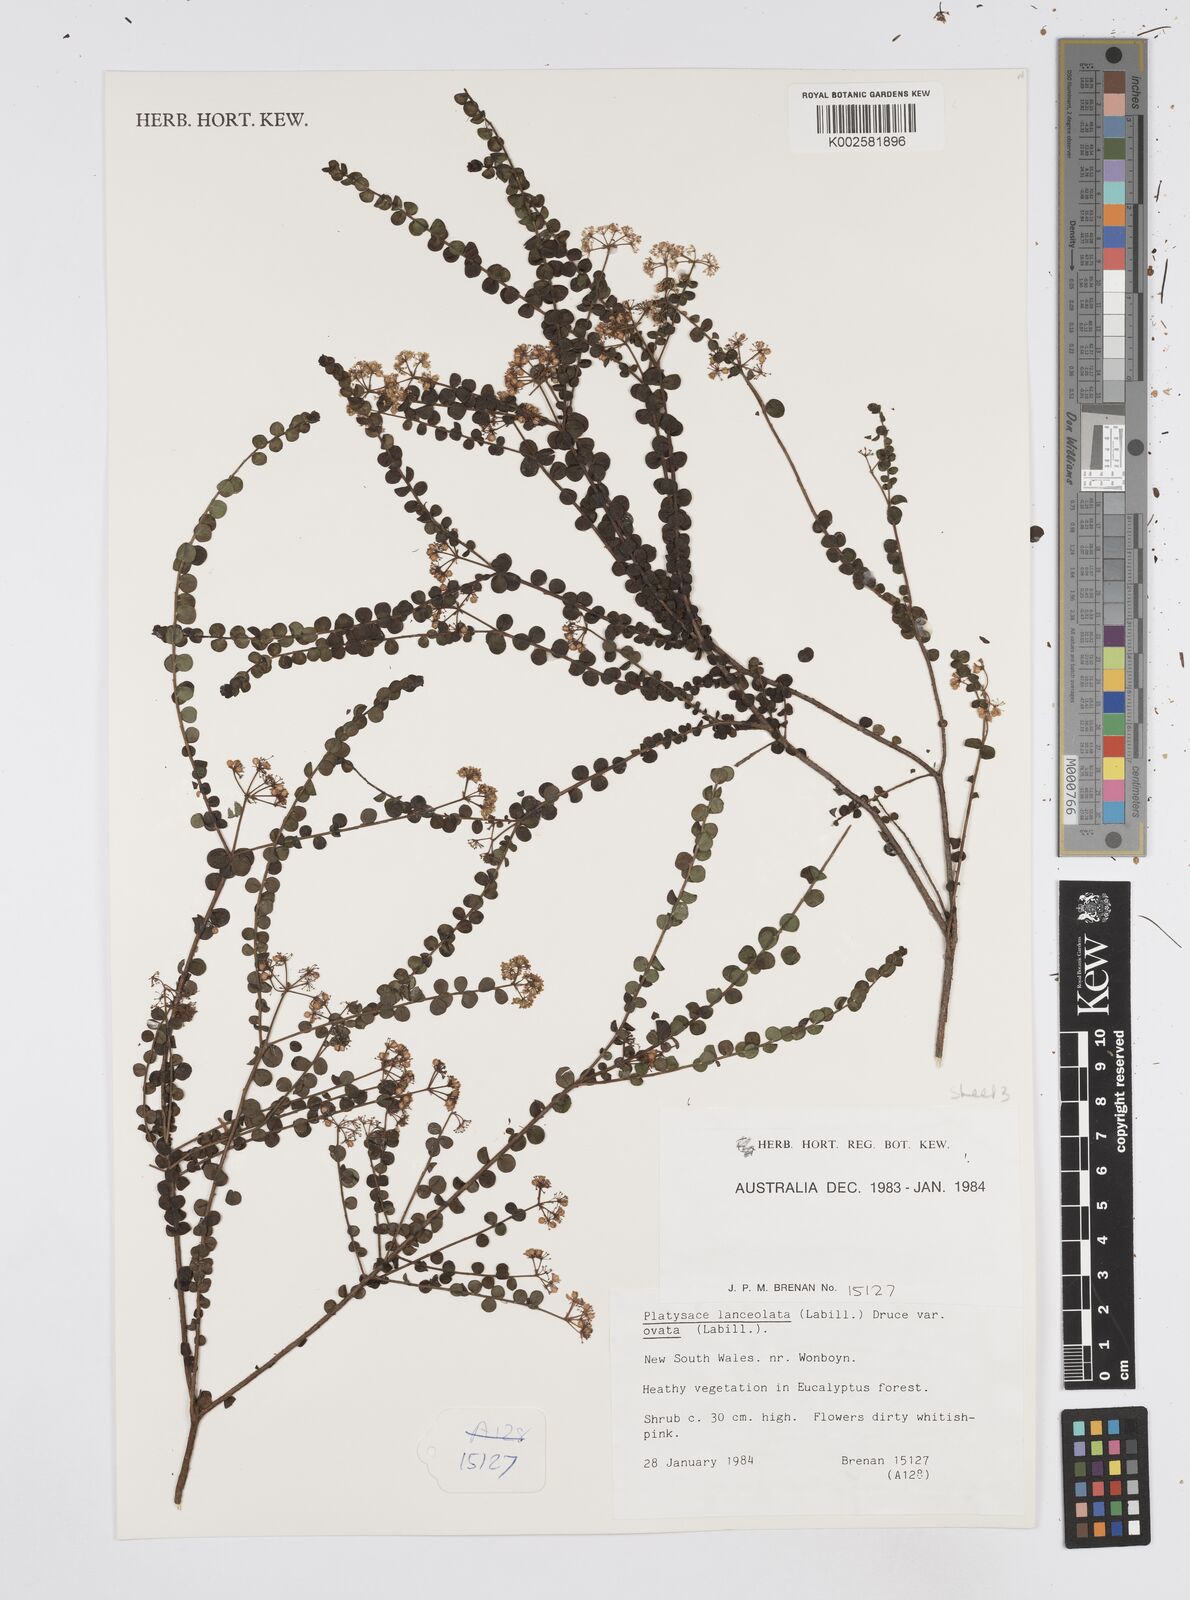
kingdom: Plantae
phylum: Tracheophyta
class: Magnoliopsida
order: Apiales
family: Apiaceae
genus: Platysace
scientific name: Platysace lanceolata
